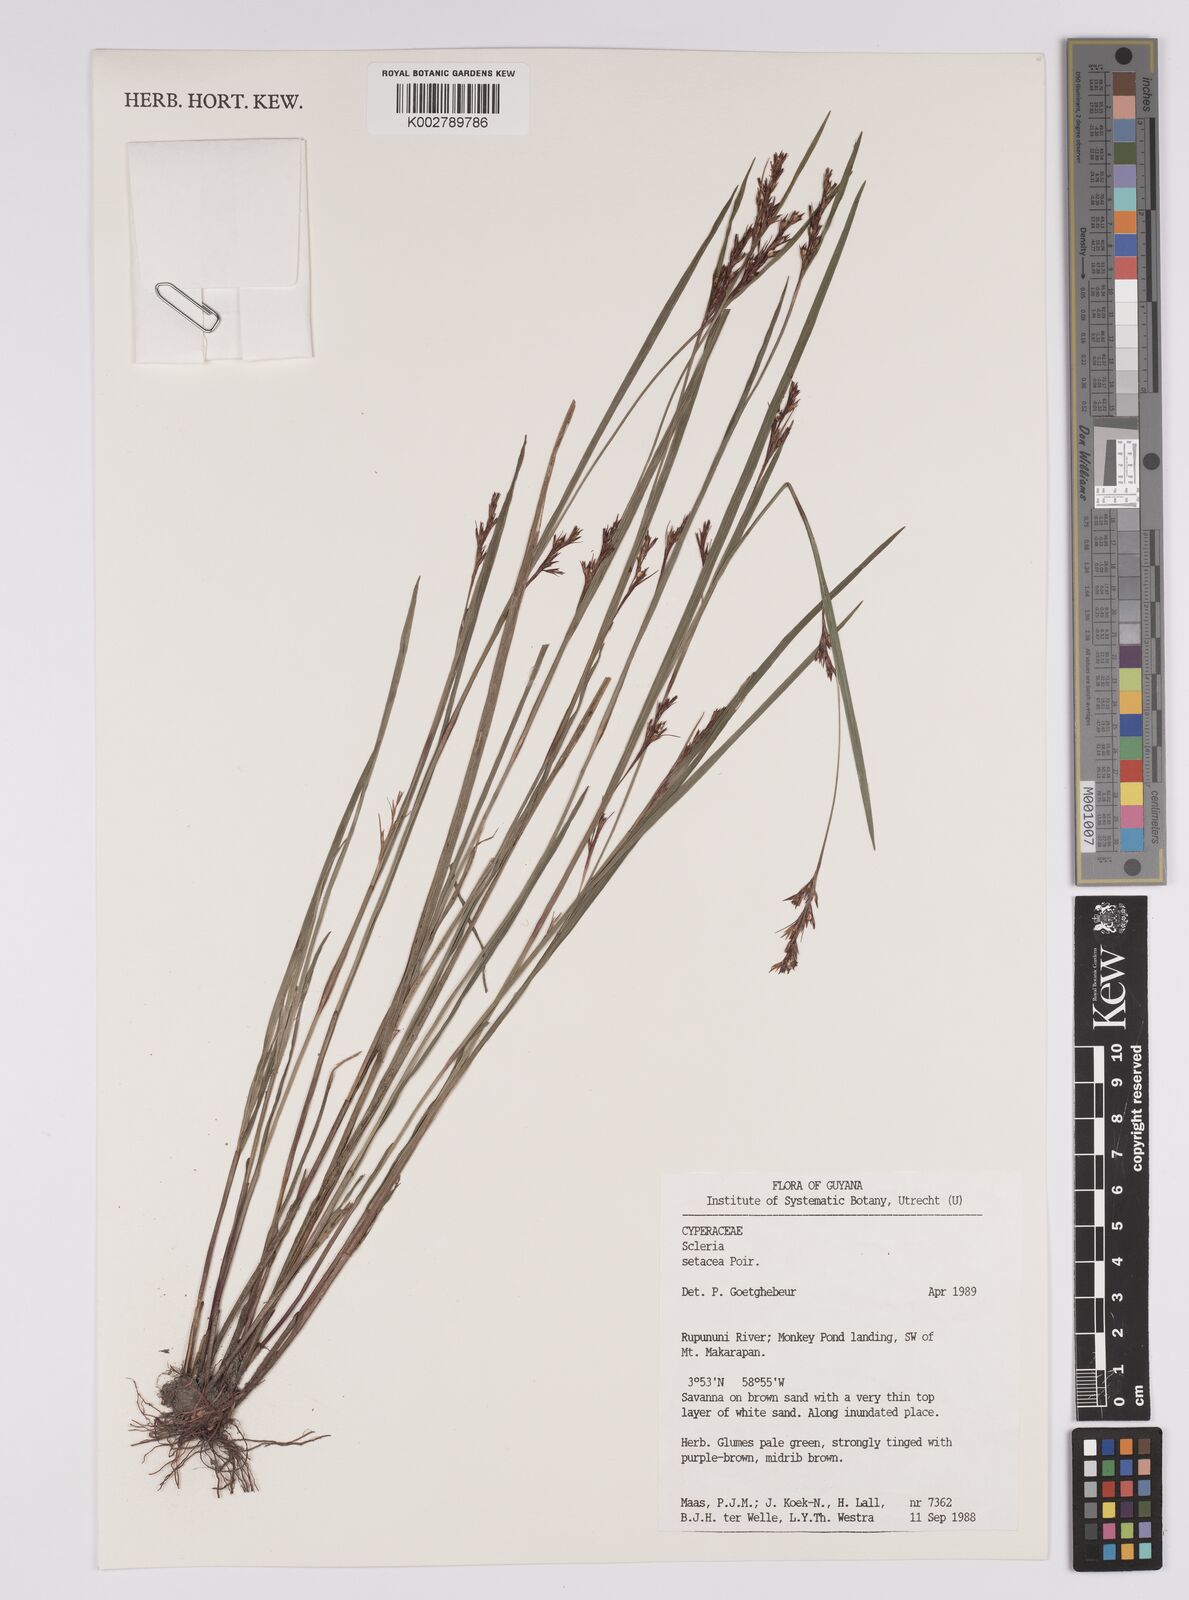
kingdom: Plantae
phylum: Tracheophyta
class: Liliopsida
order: Poales
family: Cyperaceae
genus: Rhynchospora
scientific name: Rhynchospora tenerrima
